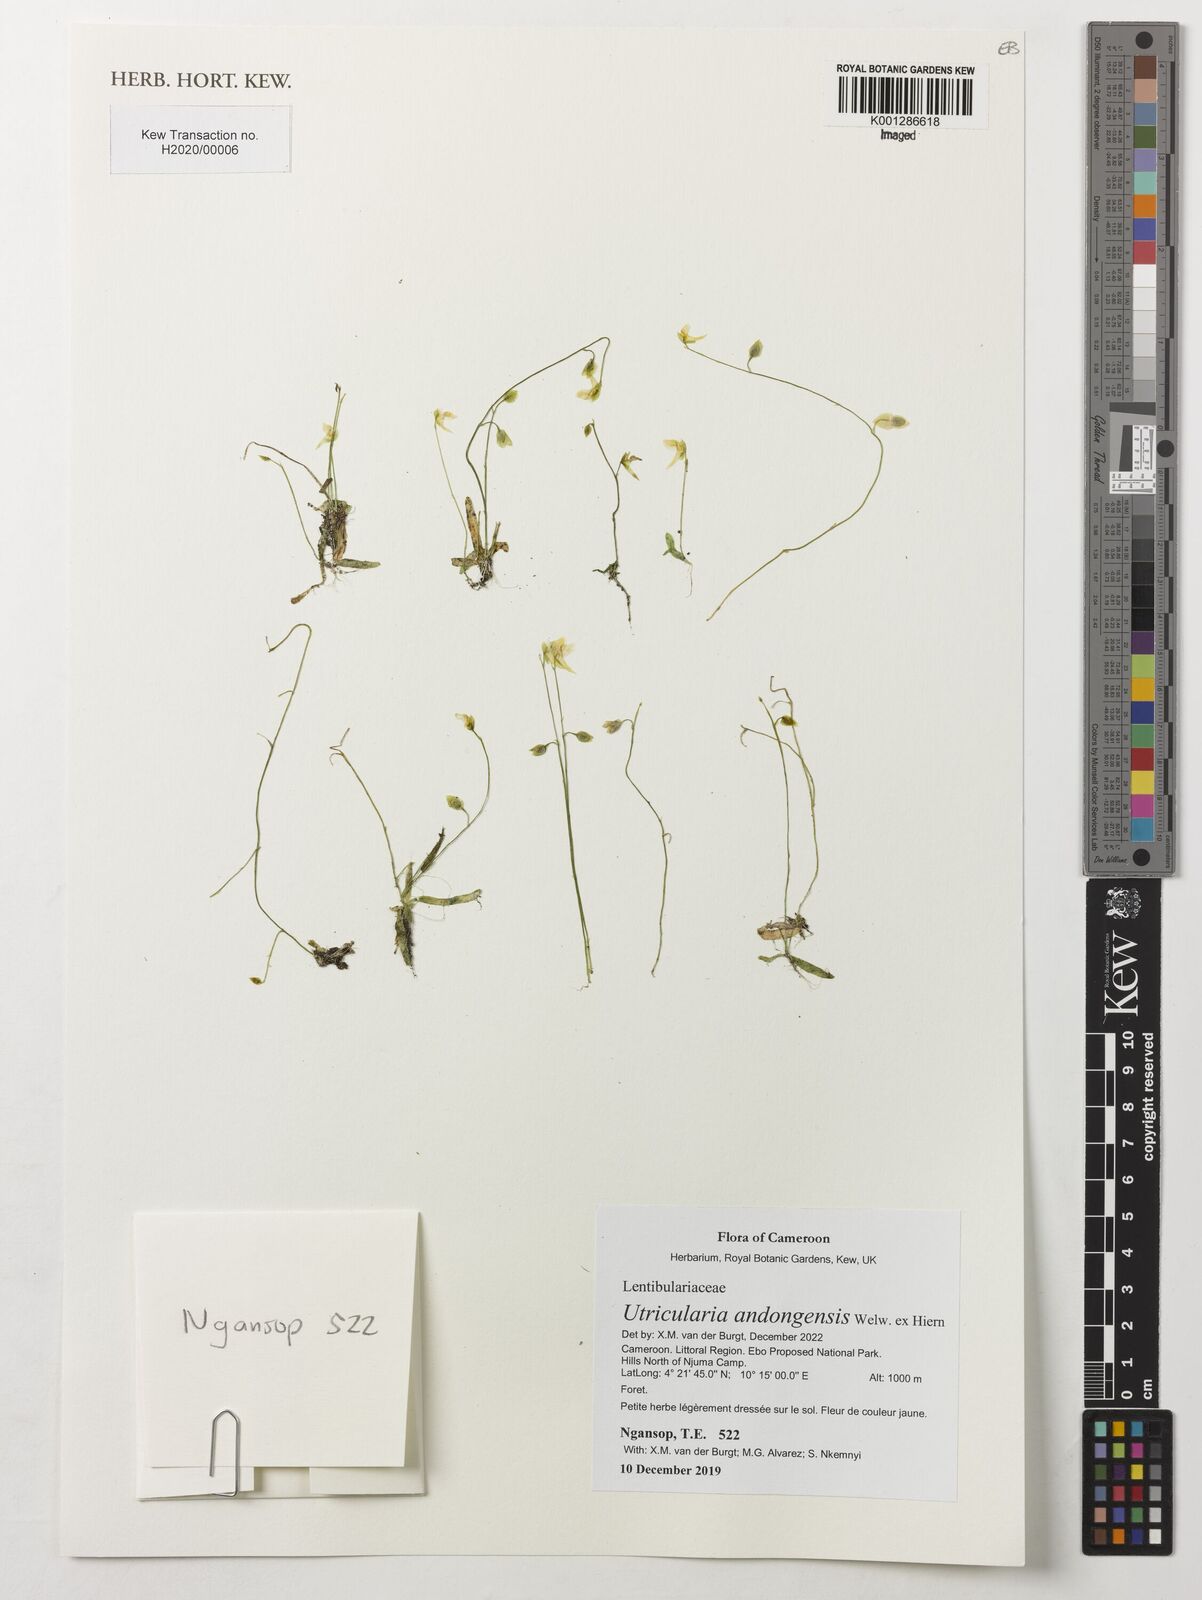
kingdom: Plantae
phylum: Tracheophyta
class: Magnoliopsida
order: Lamiales
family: Lentibulariaceae
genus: Utricularia
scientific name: Utricularia andongensis
